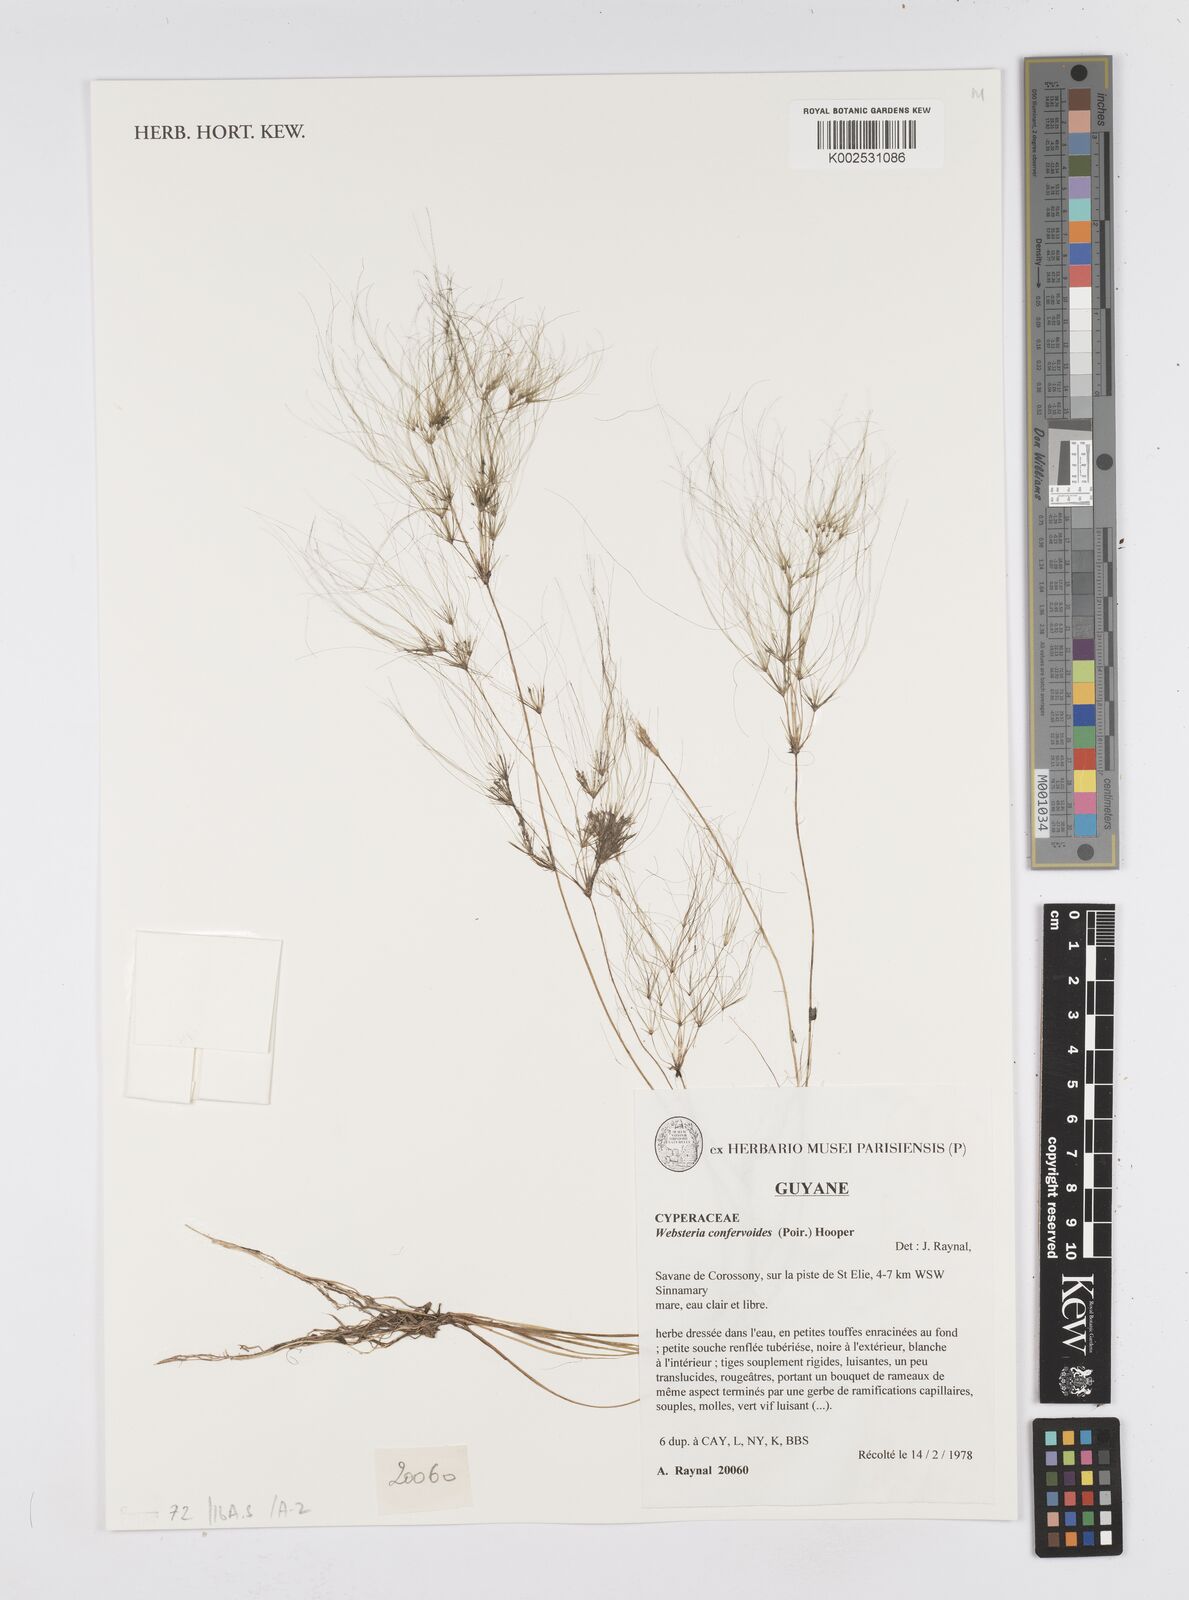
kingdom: Plantae
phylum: Tracheophyta
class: Liliopsida
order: Poales
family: Cyperaceae
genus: Eleocharis
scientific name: Eleocharis confervoides
